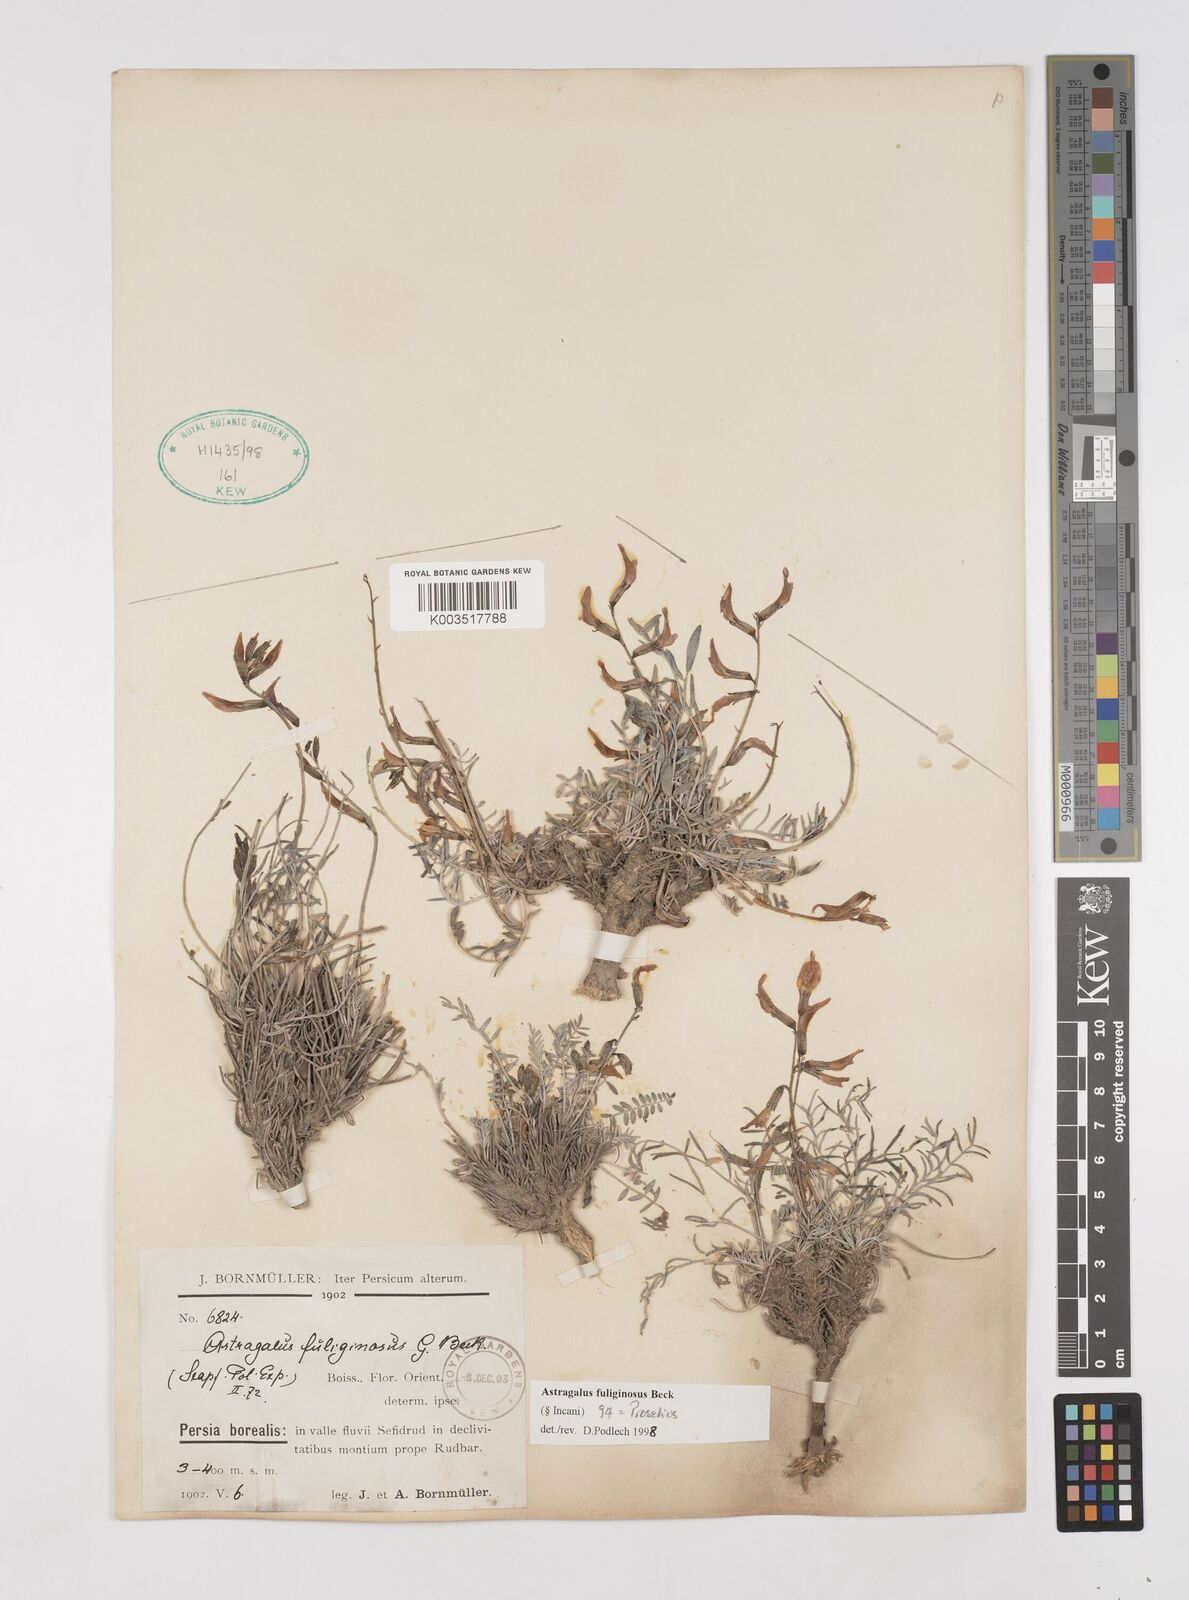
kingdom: Plantae
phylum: Tracheophyta
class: Magnoliopsida
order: Fabales
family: Fabaceae
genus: Astragalus
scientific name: Astragalus fuliginosus
